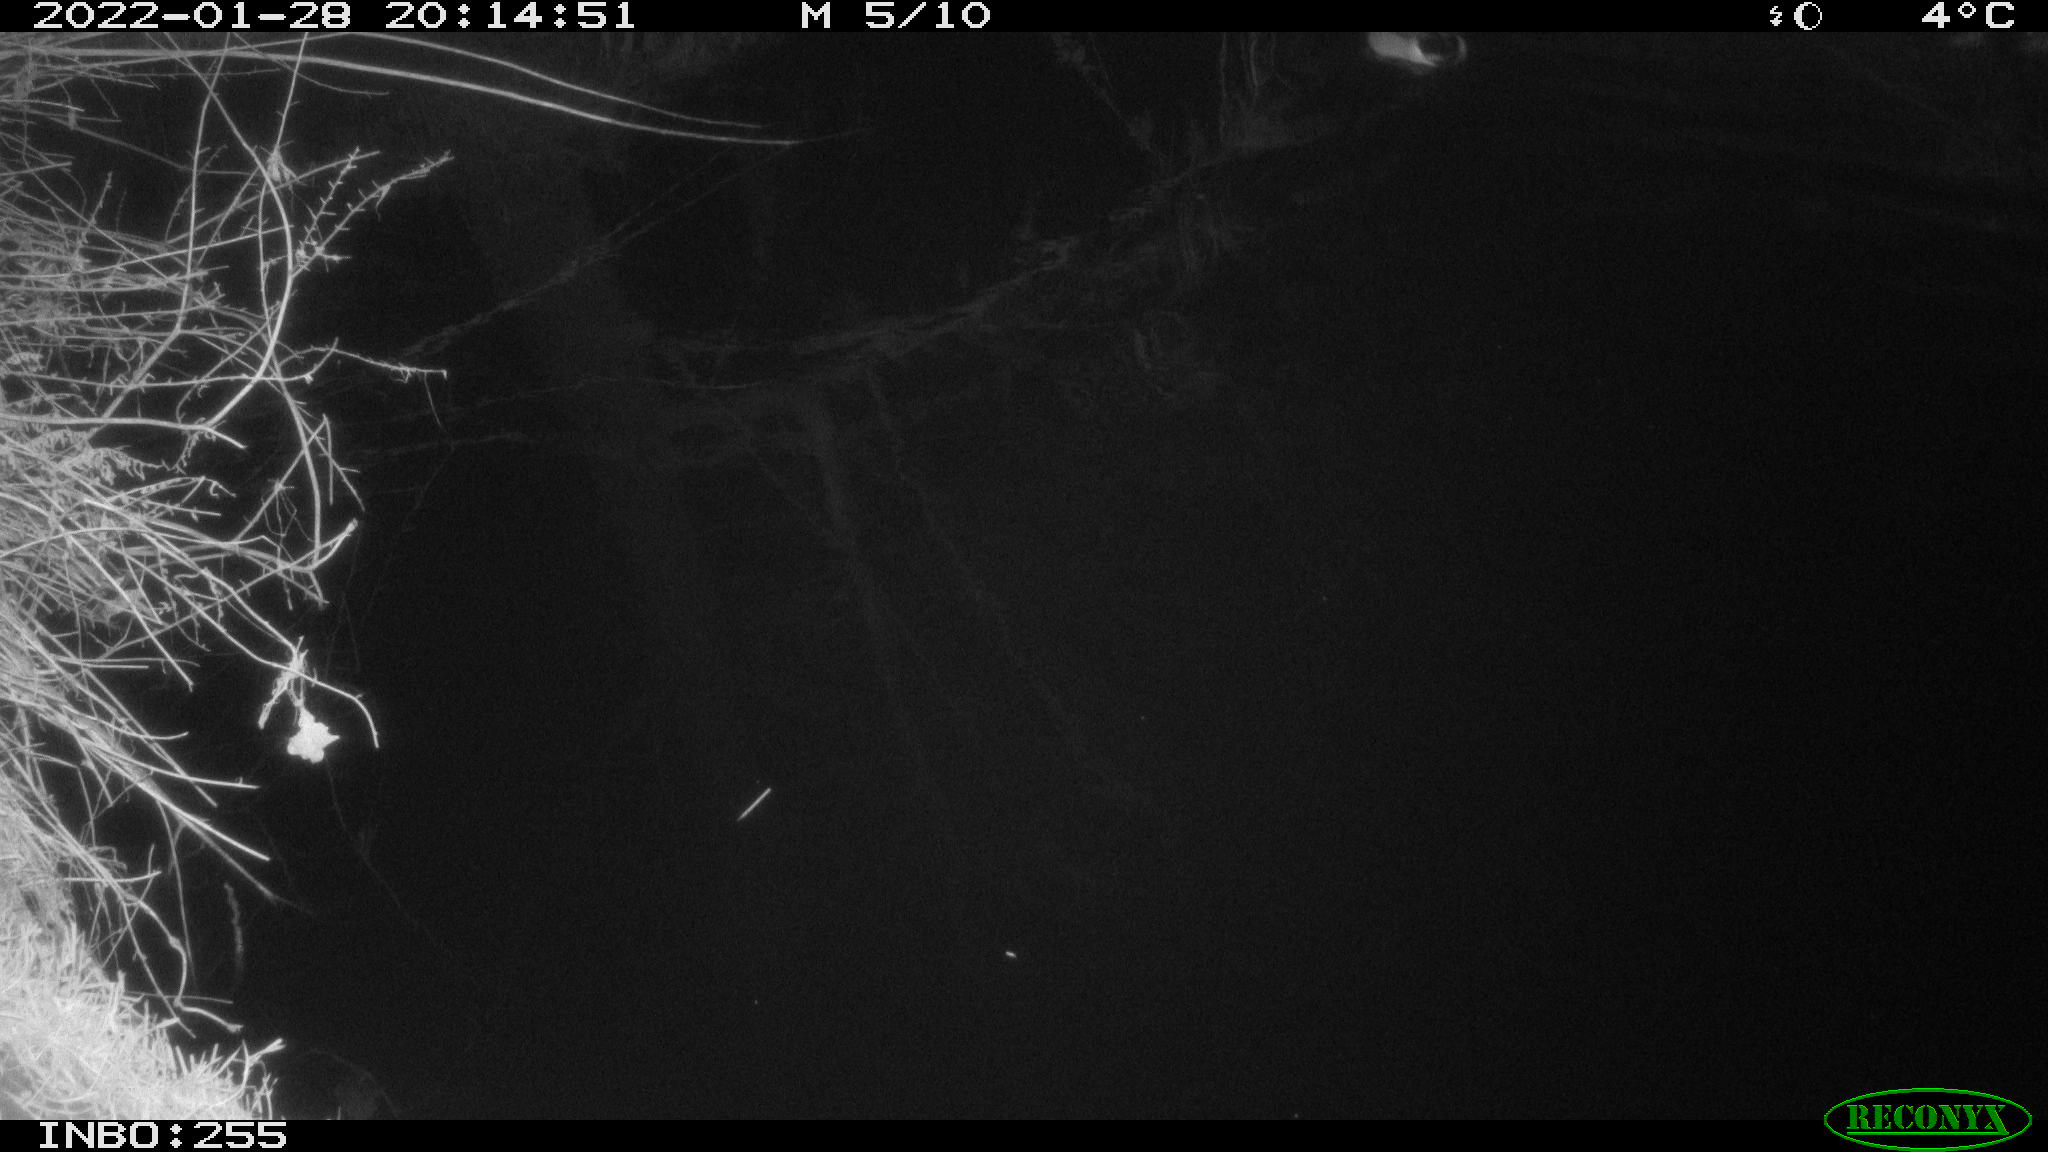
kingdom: Animalia
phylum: Chordata
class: Aves
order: Anseriformes
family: Anatidae
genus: Anas
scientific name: Anas
